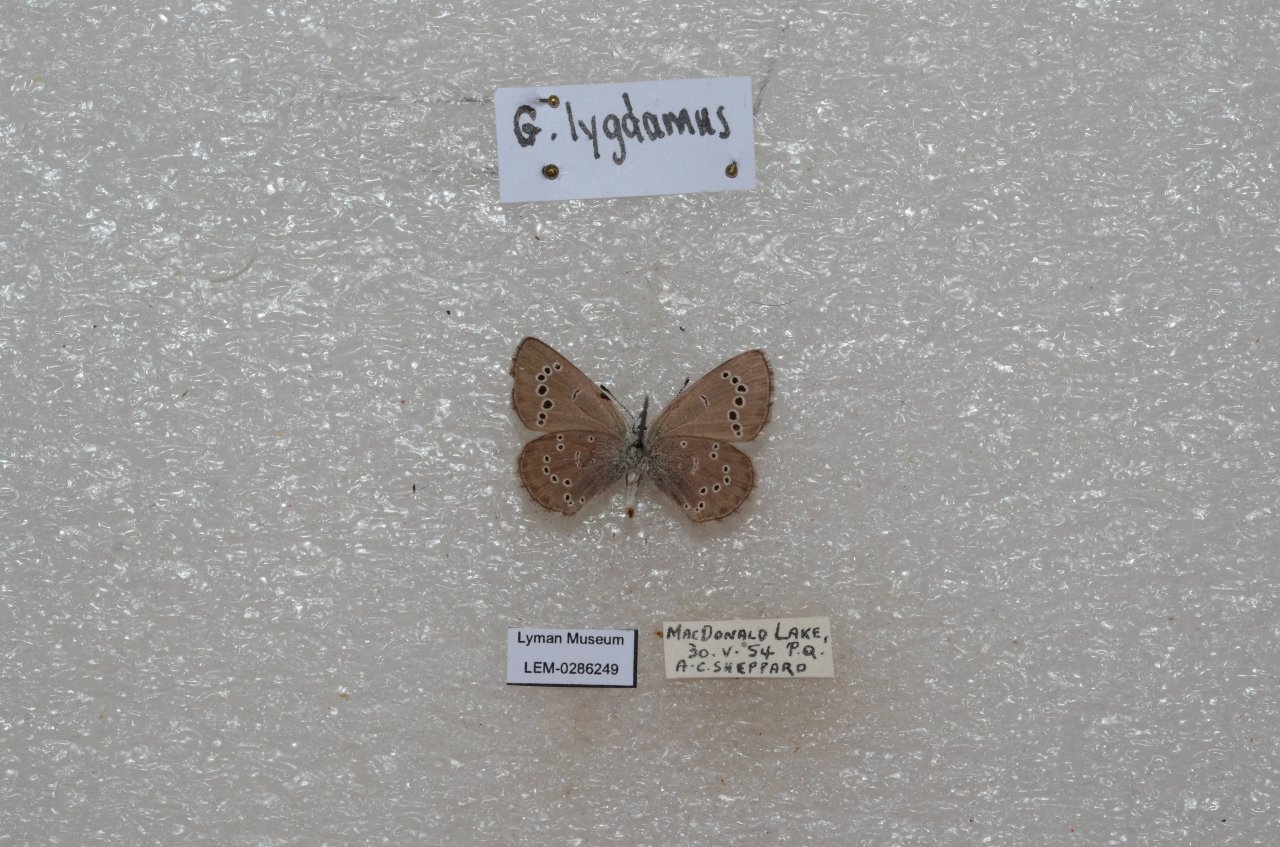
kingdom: Animalia
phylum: Arthropoda
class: Insecta
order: Lepidoptera
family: Lycaenidae
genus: Glaucopsyche
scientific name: Glaucopsyche lygdamus
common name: Silvery Blue
